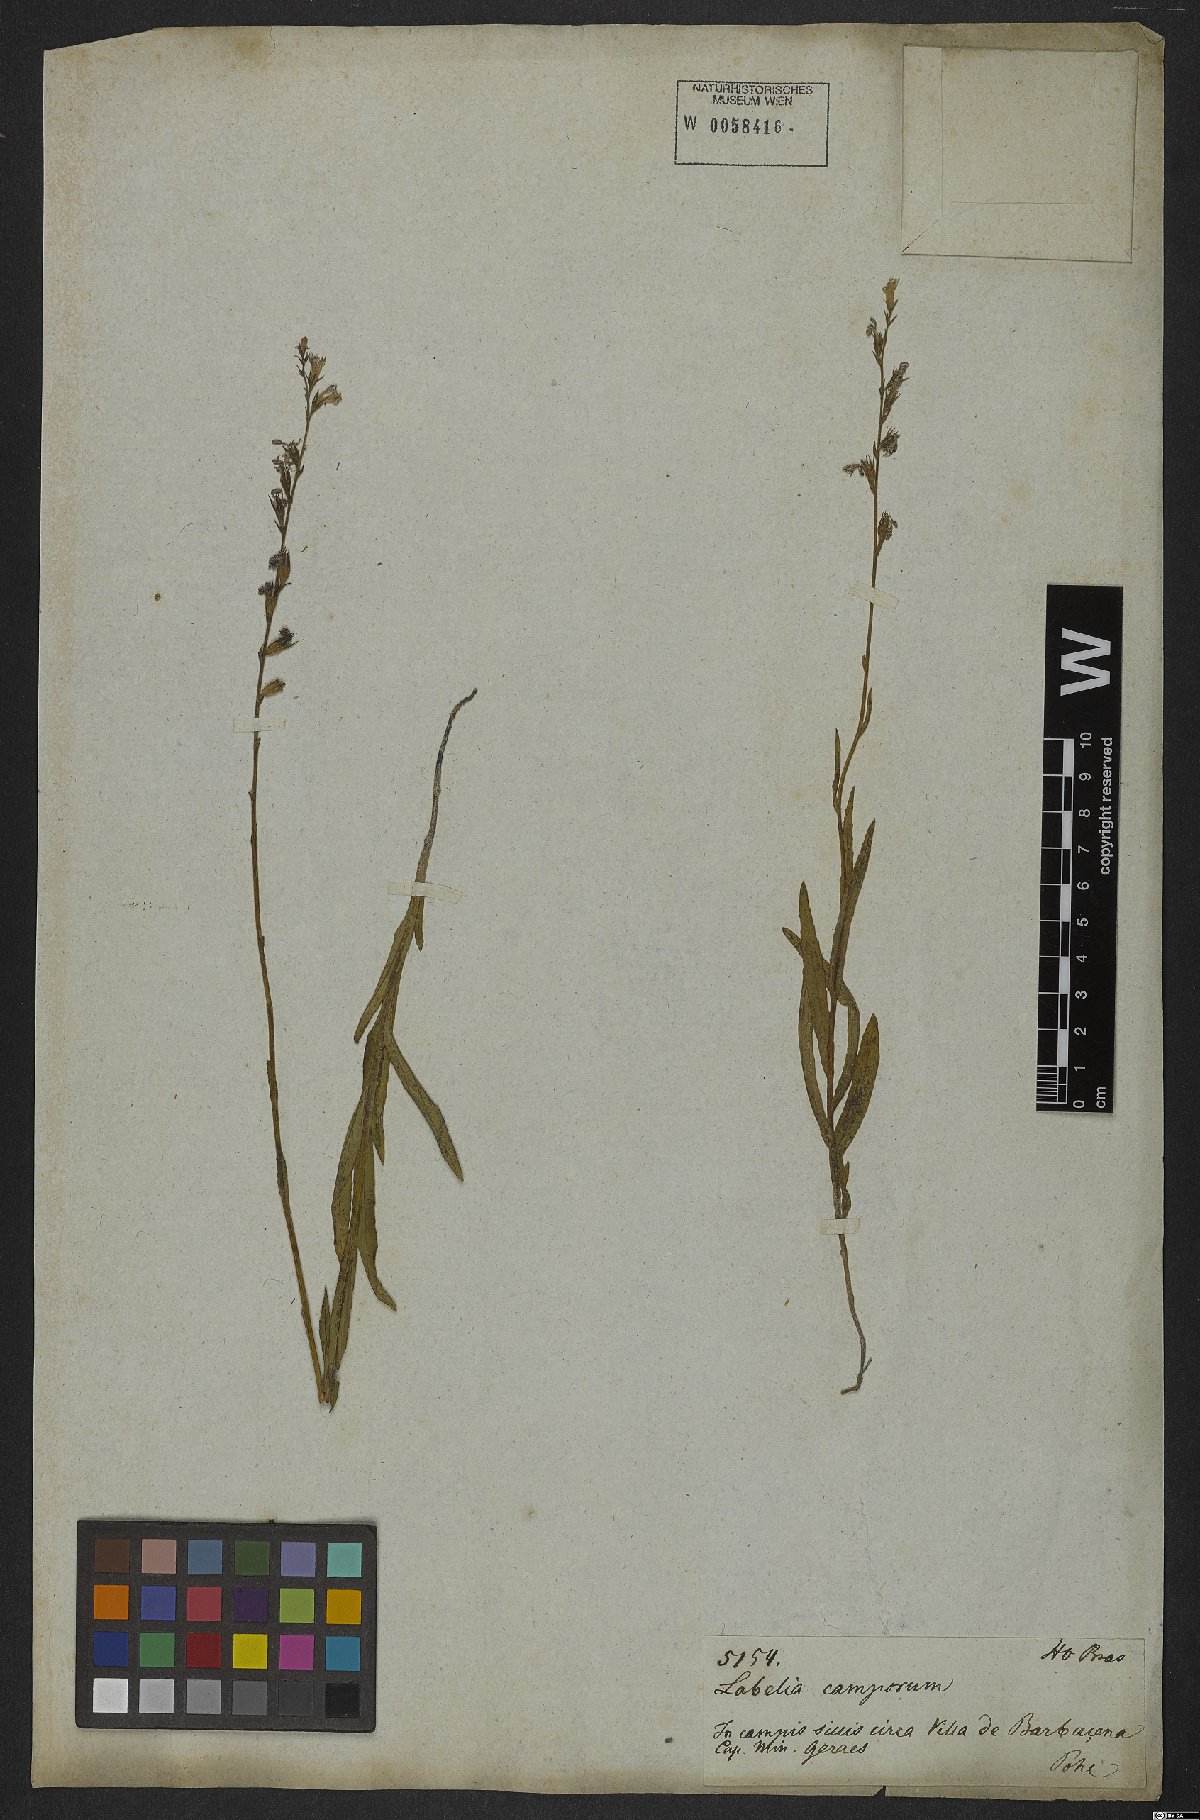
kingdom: Plantae
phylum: Tracheophyta
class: Magnoliopsida
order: Asterales
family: Campanulaceae
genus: Lobelia
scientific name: Lobelia camporum
